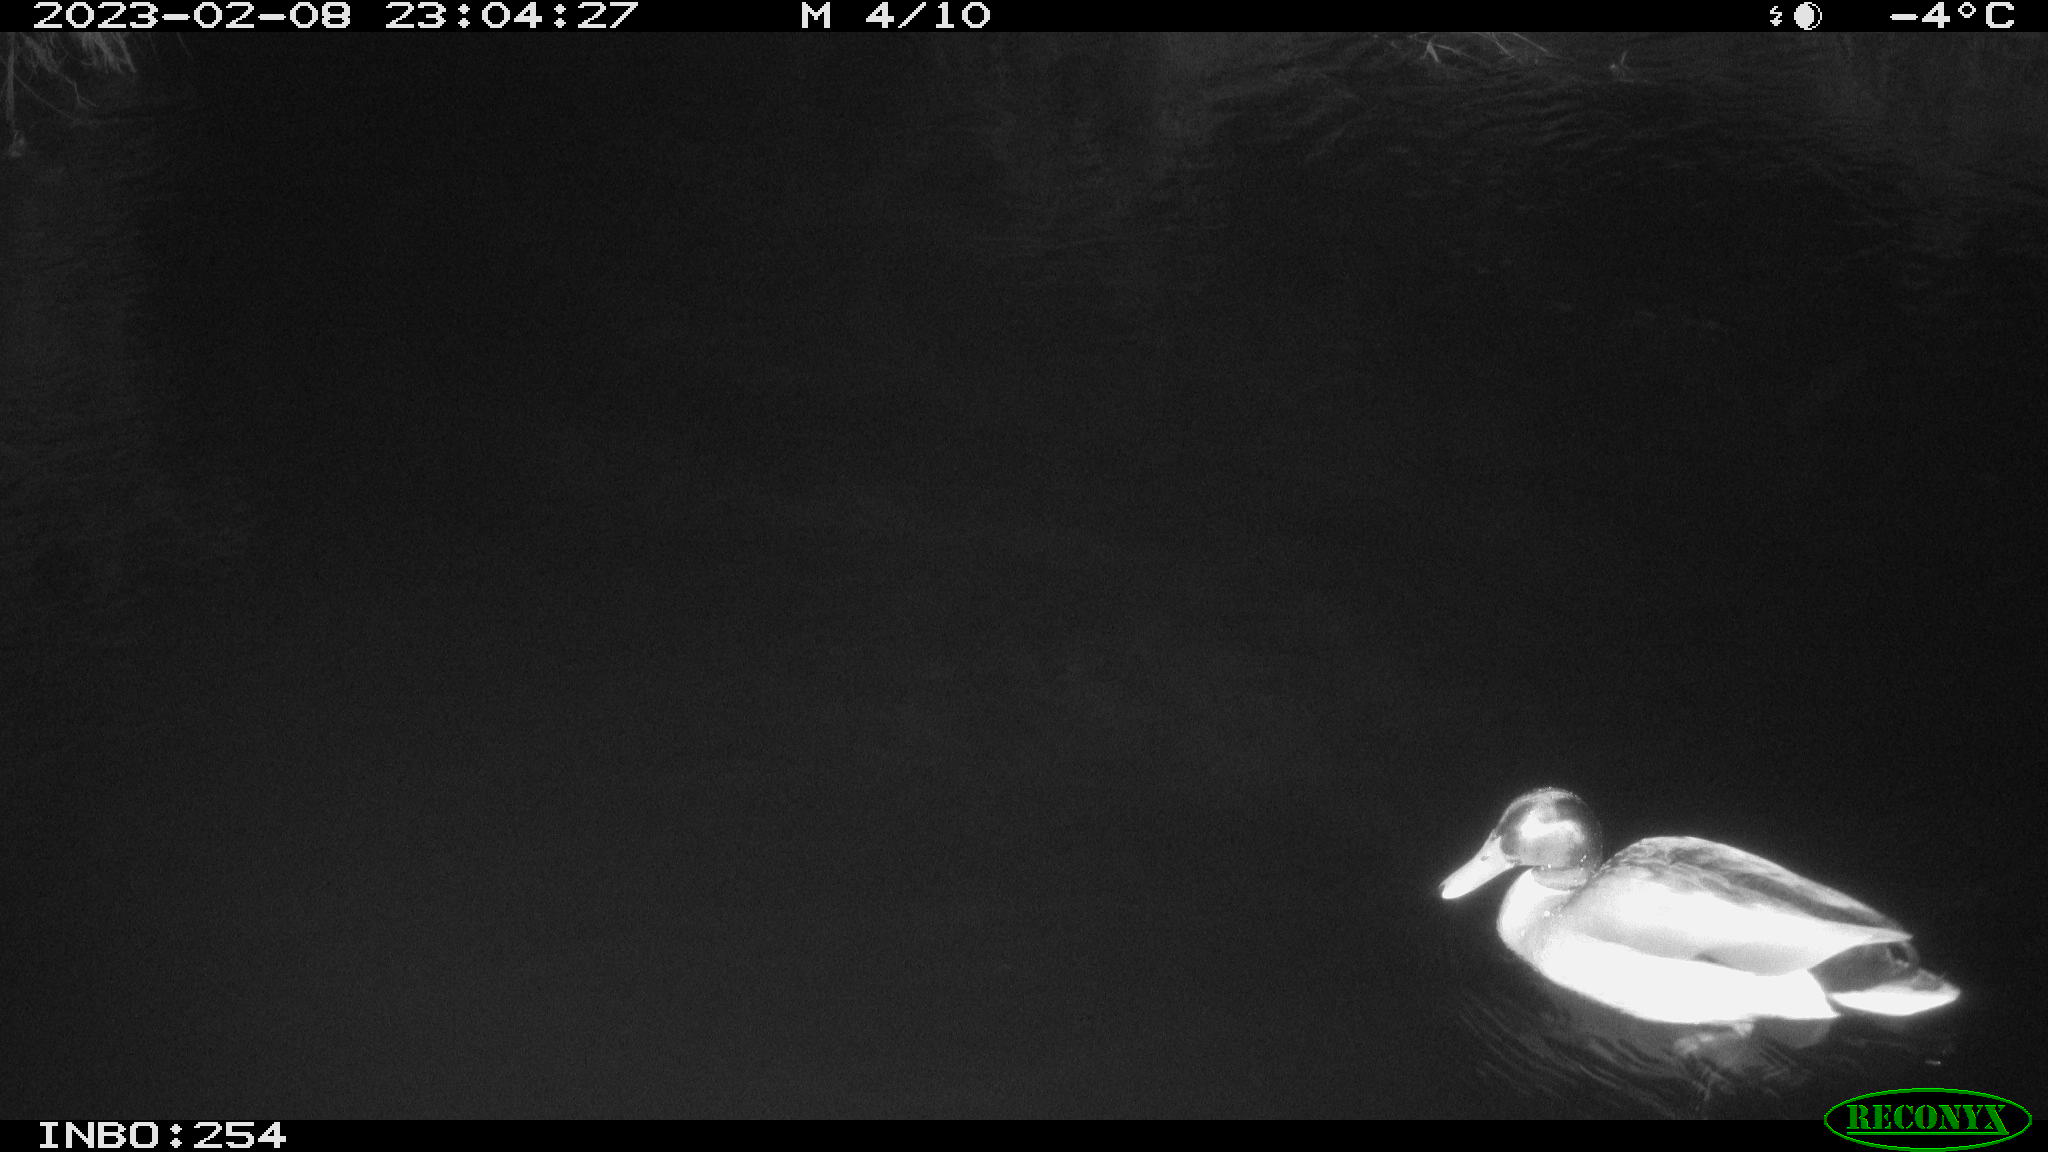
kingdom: Animalia
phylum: Chordata
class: Aves
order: Anseriformes
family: Anatidae
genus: Anas
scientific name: Anas
